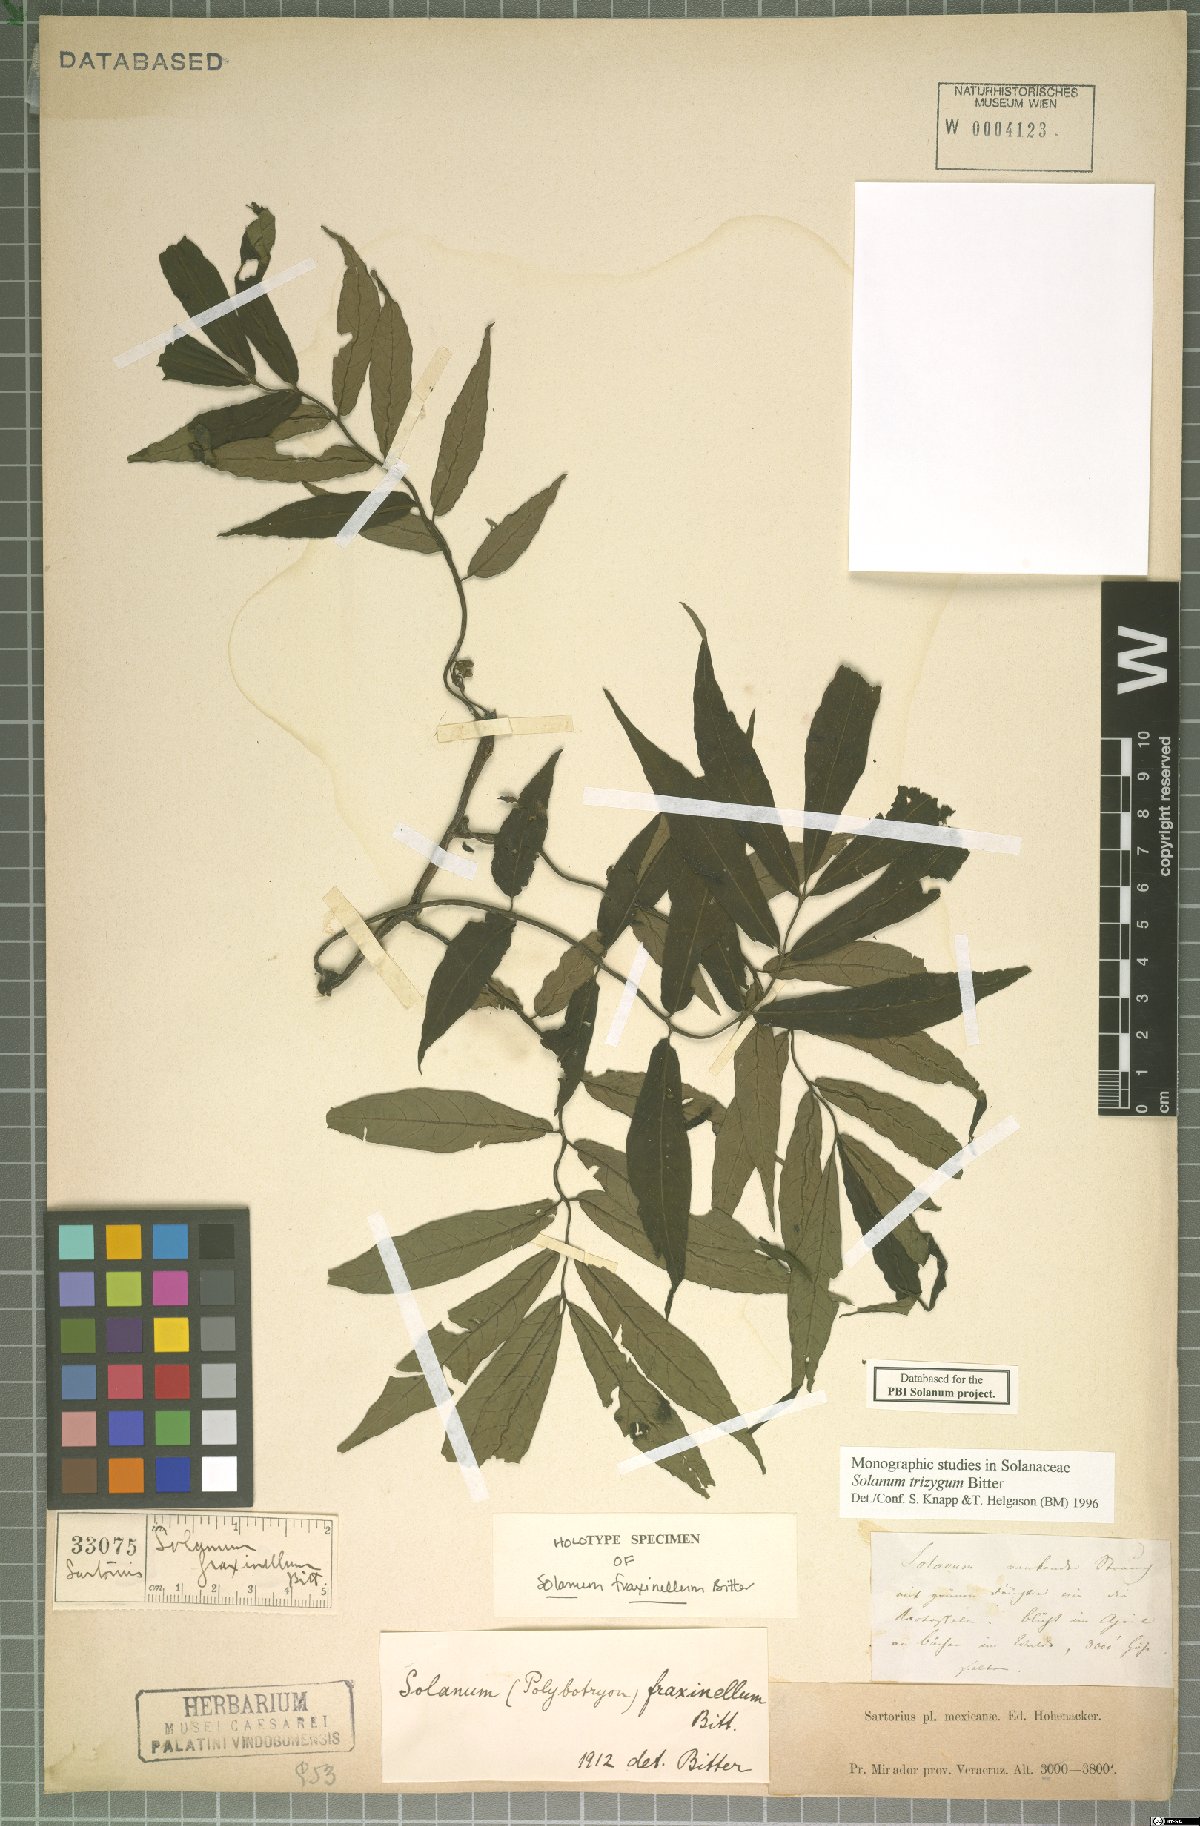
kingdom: Plantae
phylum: Tracheophyta
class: Magnoliopsida
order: Solanales
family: Solanaceae
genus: Solanum
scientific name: Solanum trizygum
